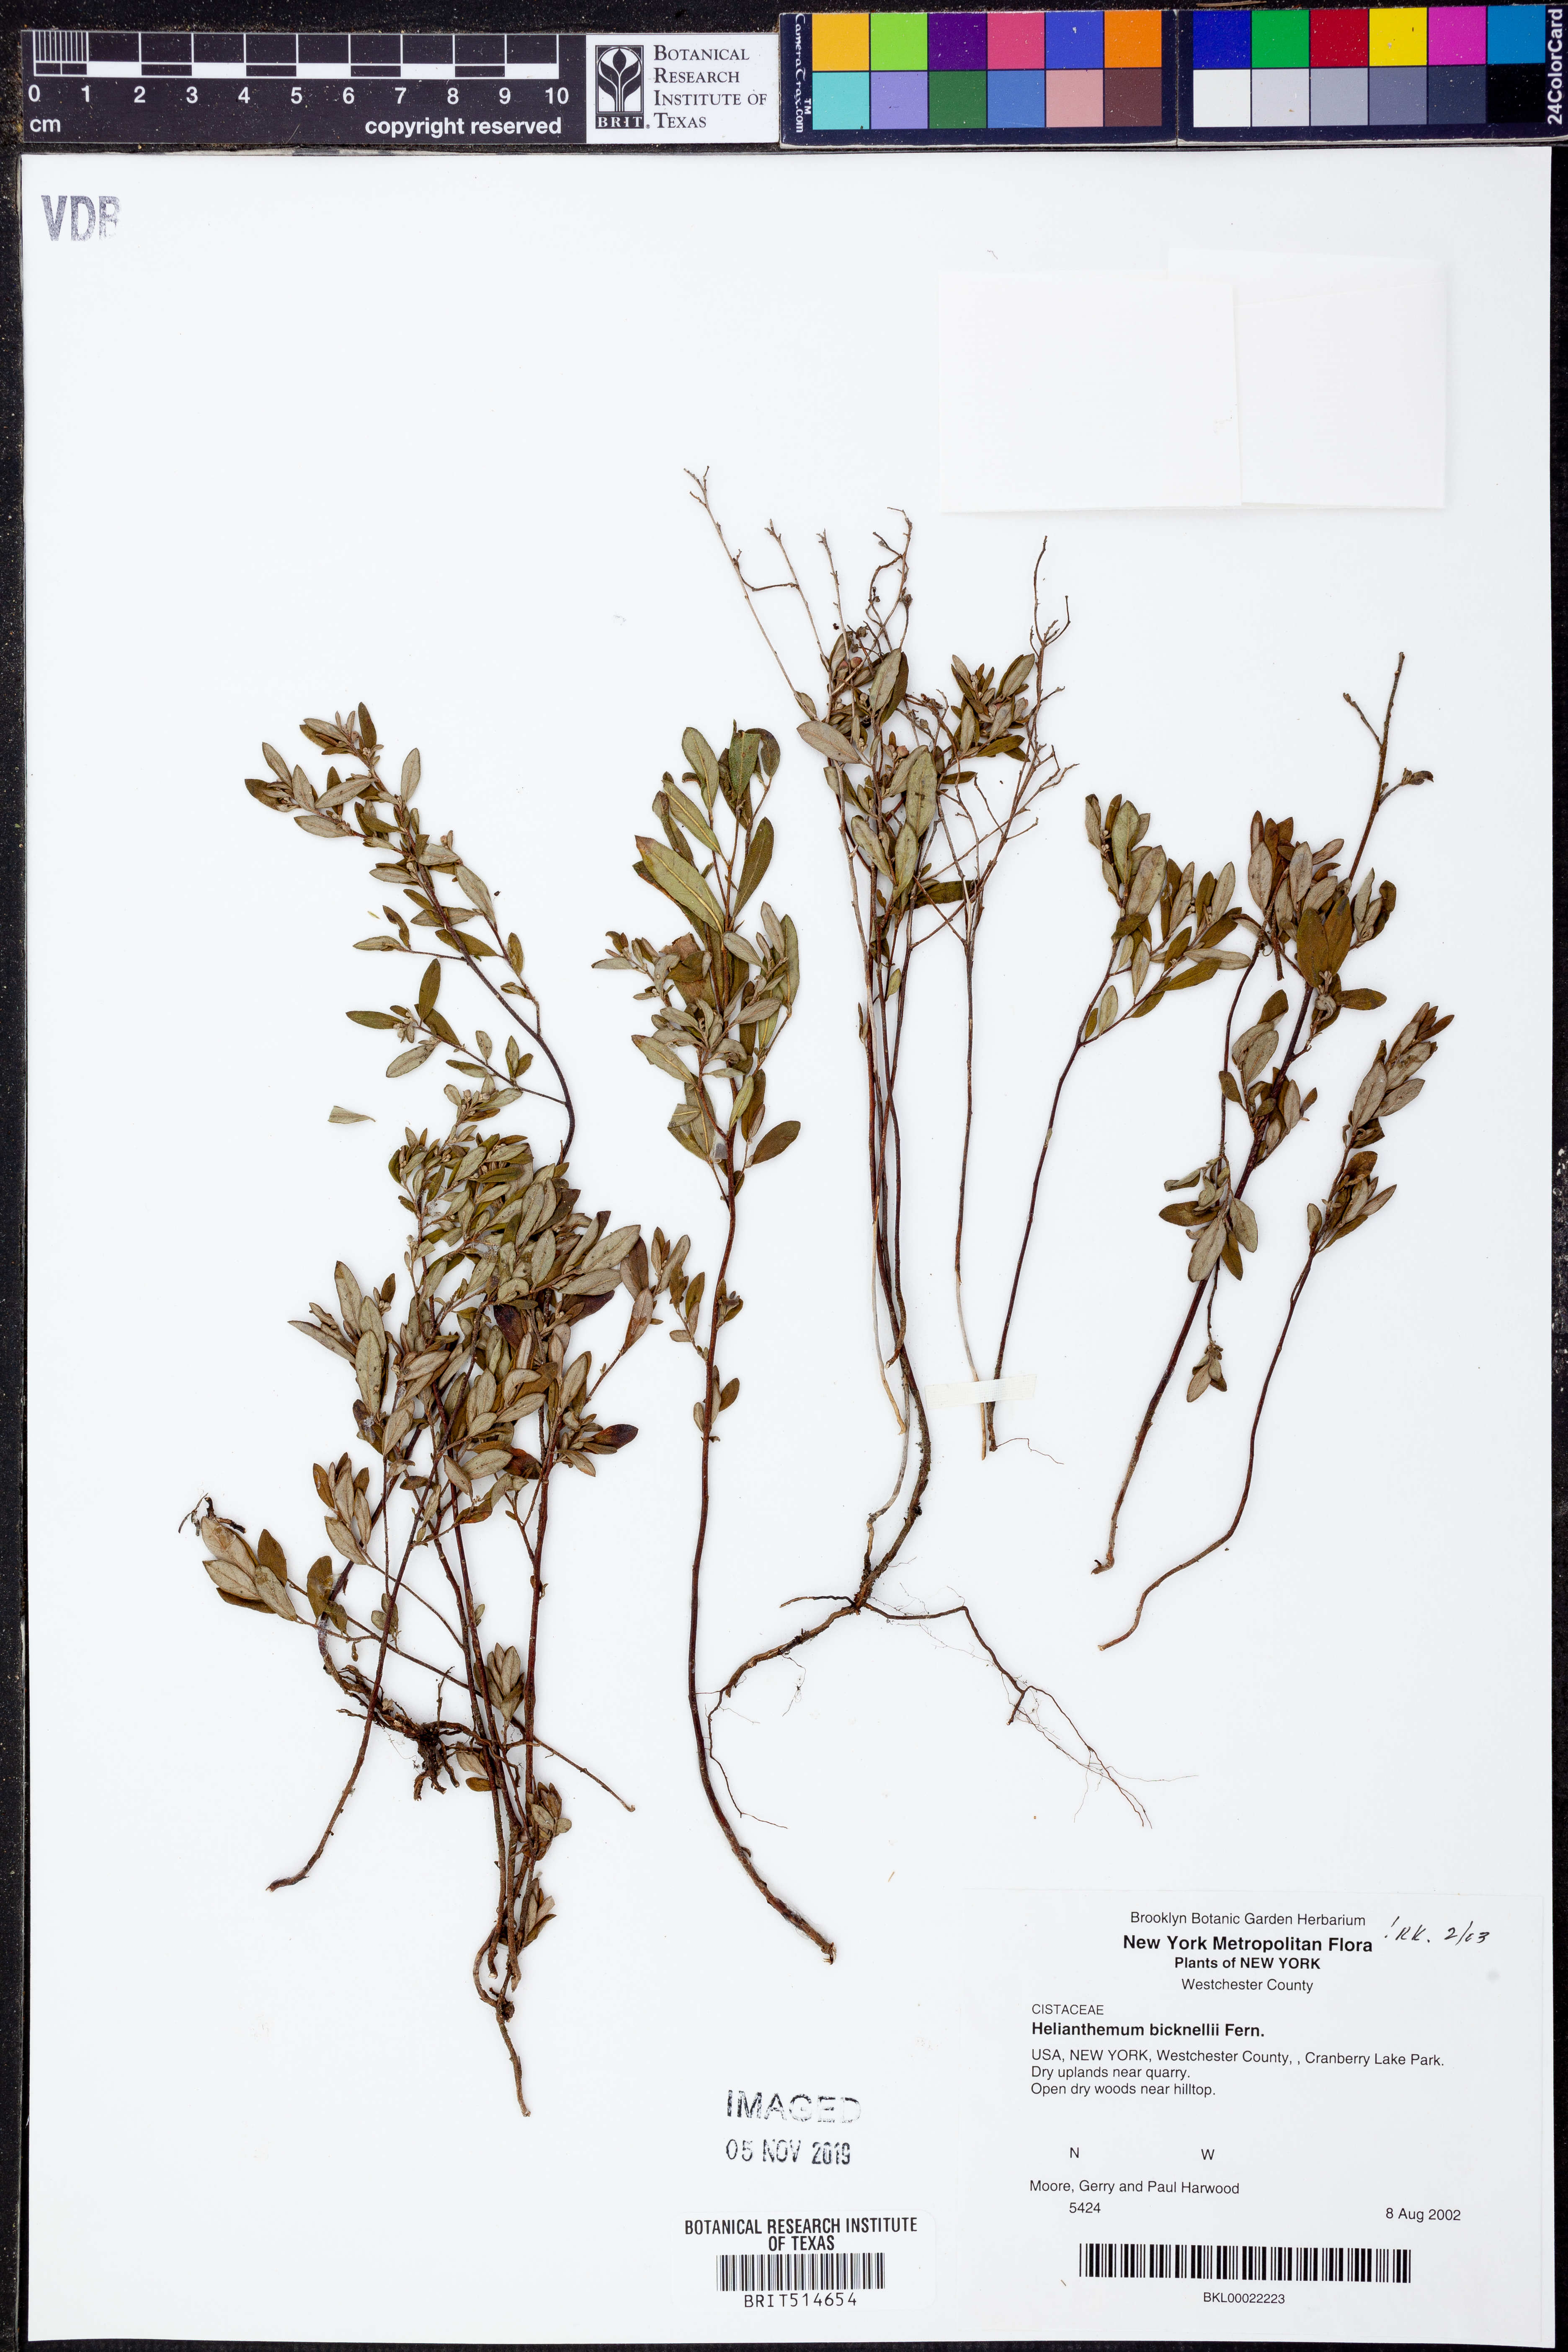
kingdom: Plantae
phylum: Tracheophyta
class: Magnoliopsida
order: Malvales
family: Cistaceae
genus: Crocanthemum
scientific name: Crocanthemum bicknellii
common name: Hoary frostweed
